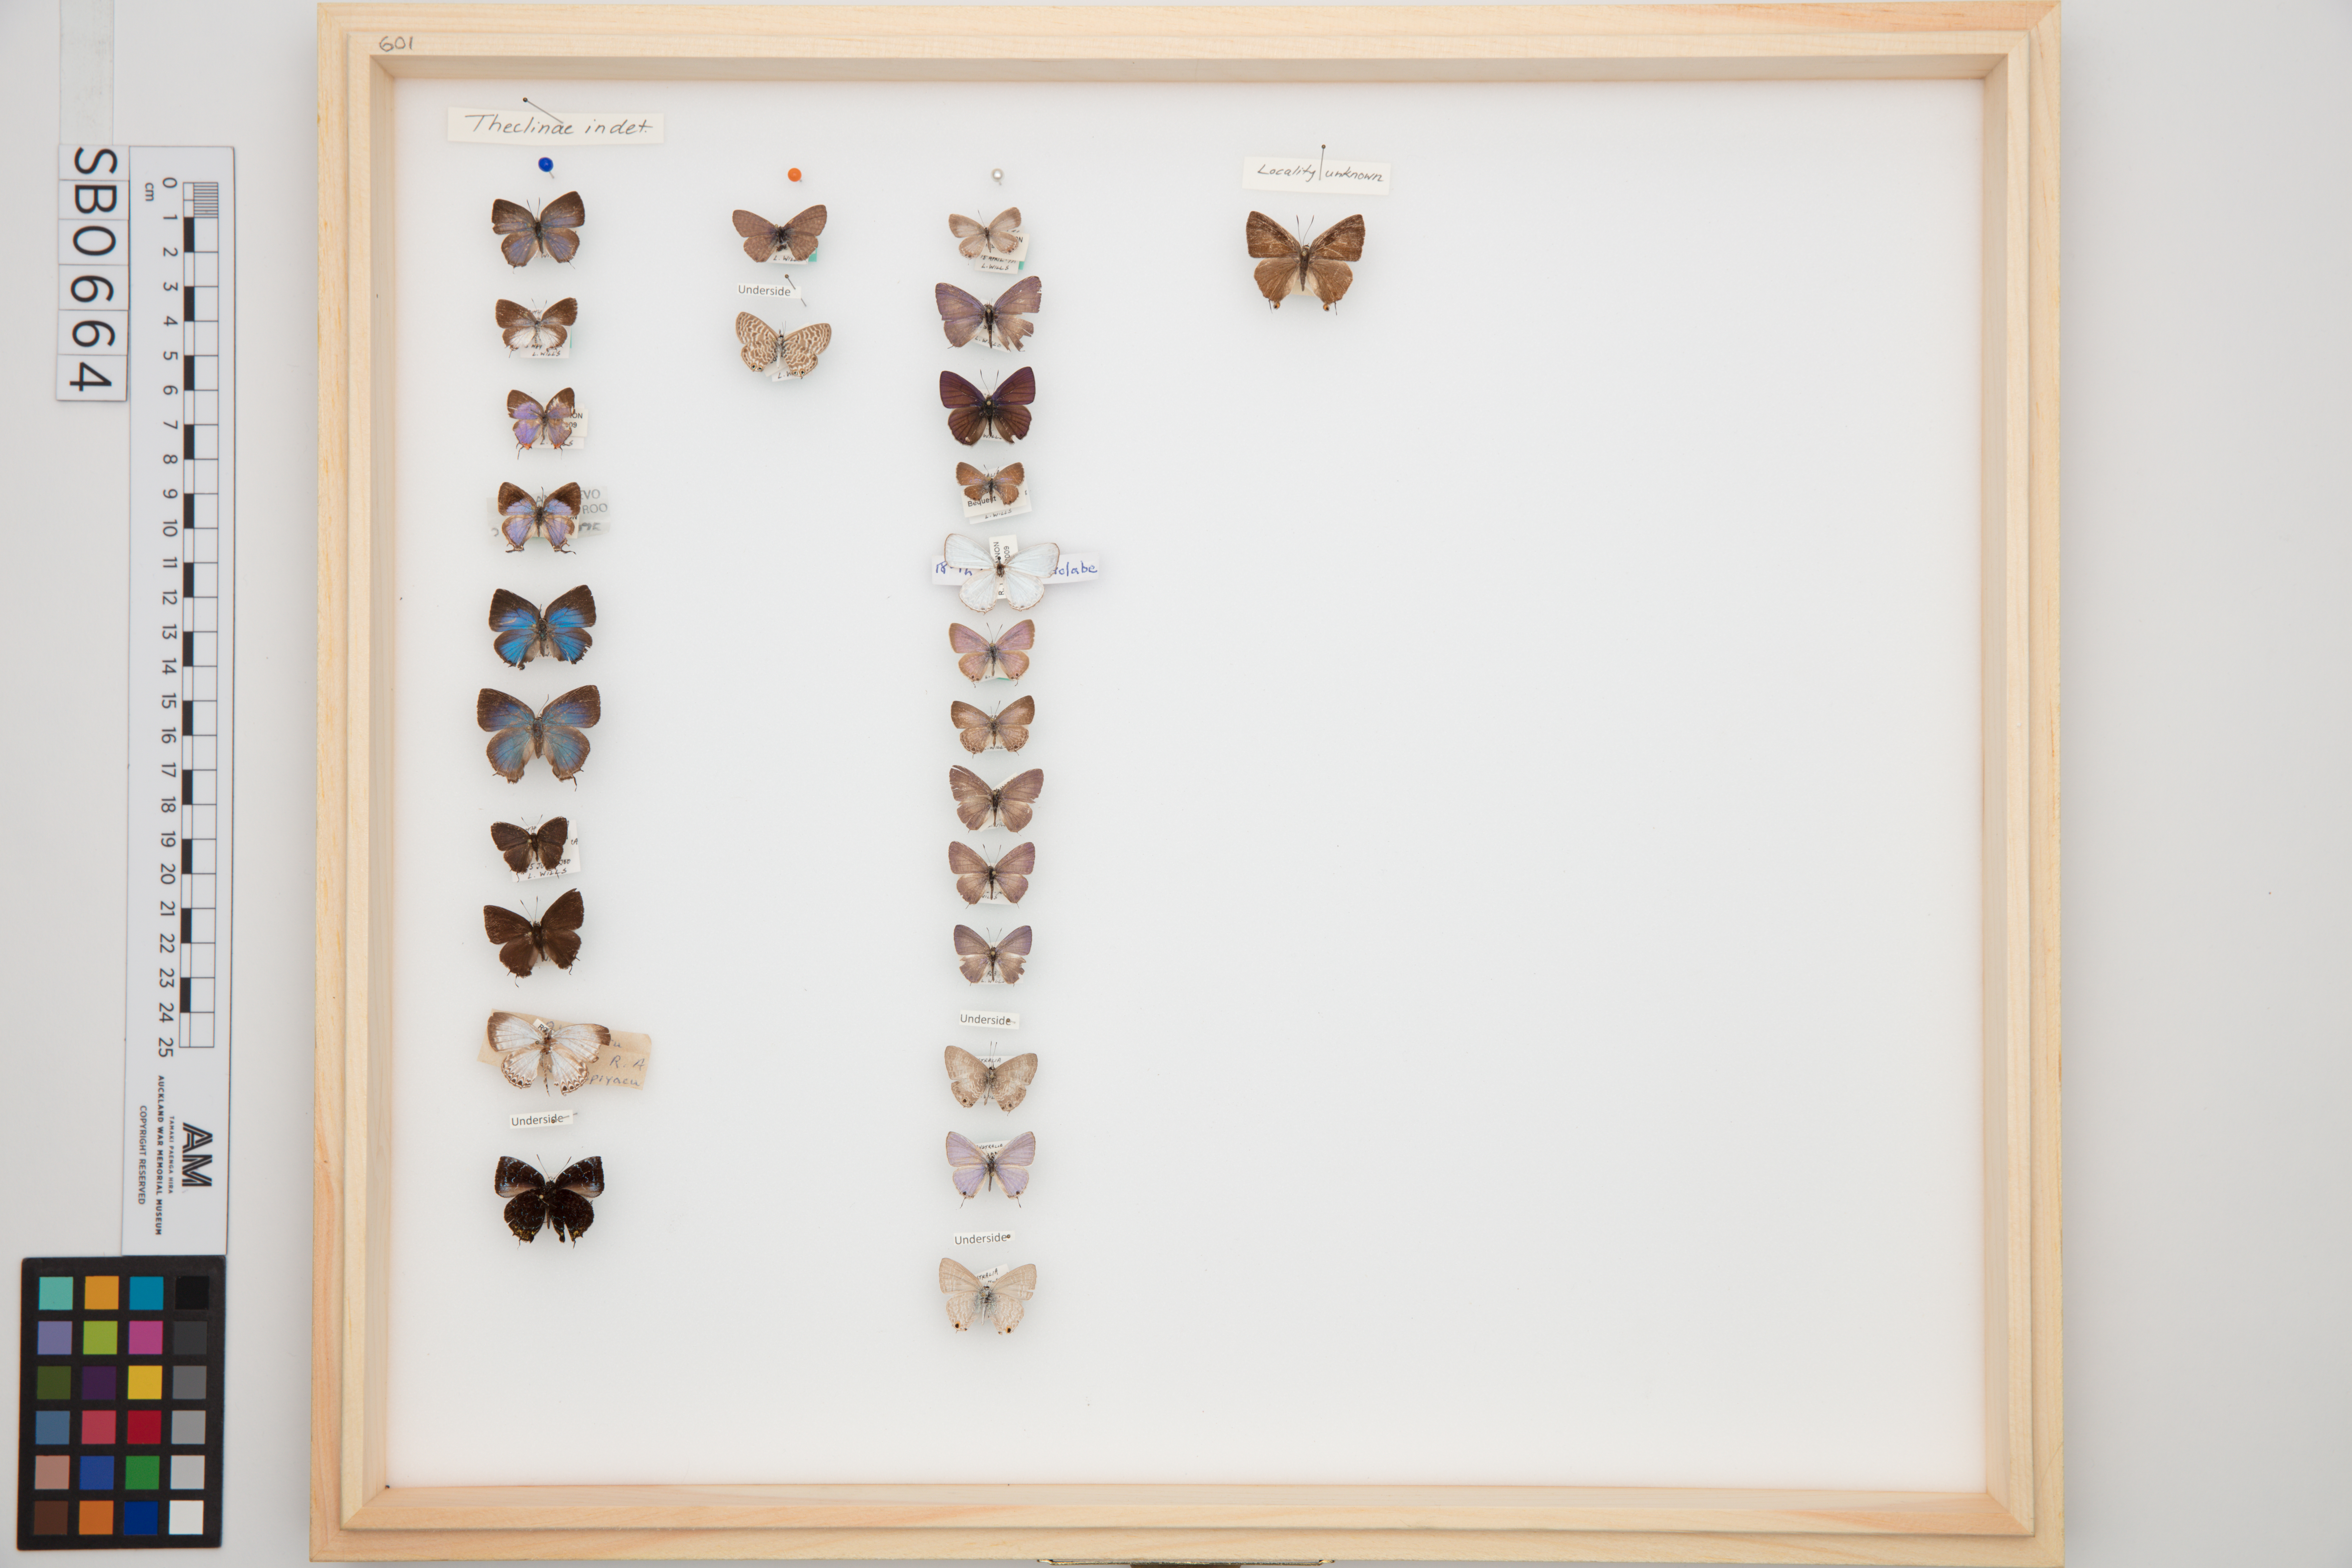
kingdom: Animalia
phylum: Arthropoda
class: Insecta
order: Lepidoptera
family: Lycaenidae
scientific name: Lycaenidae
